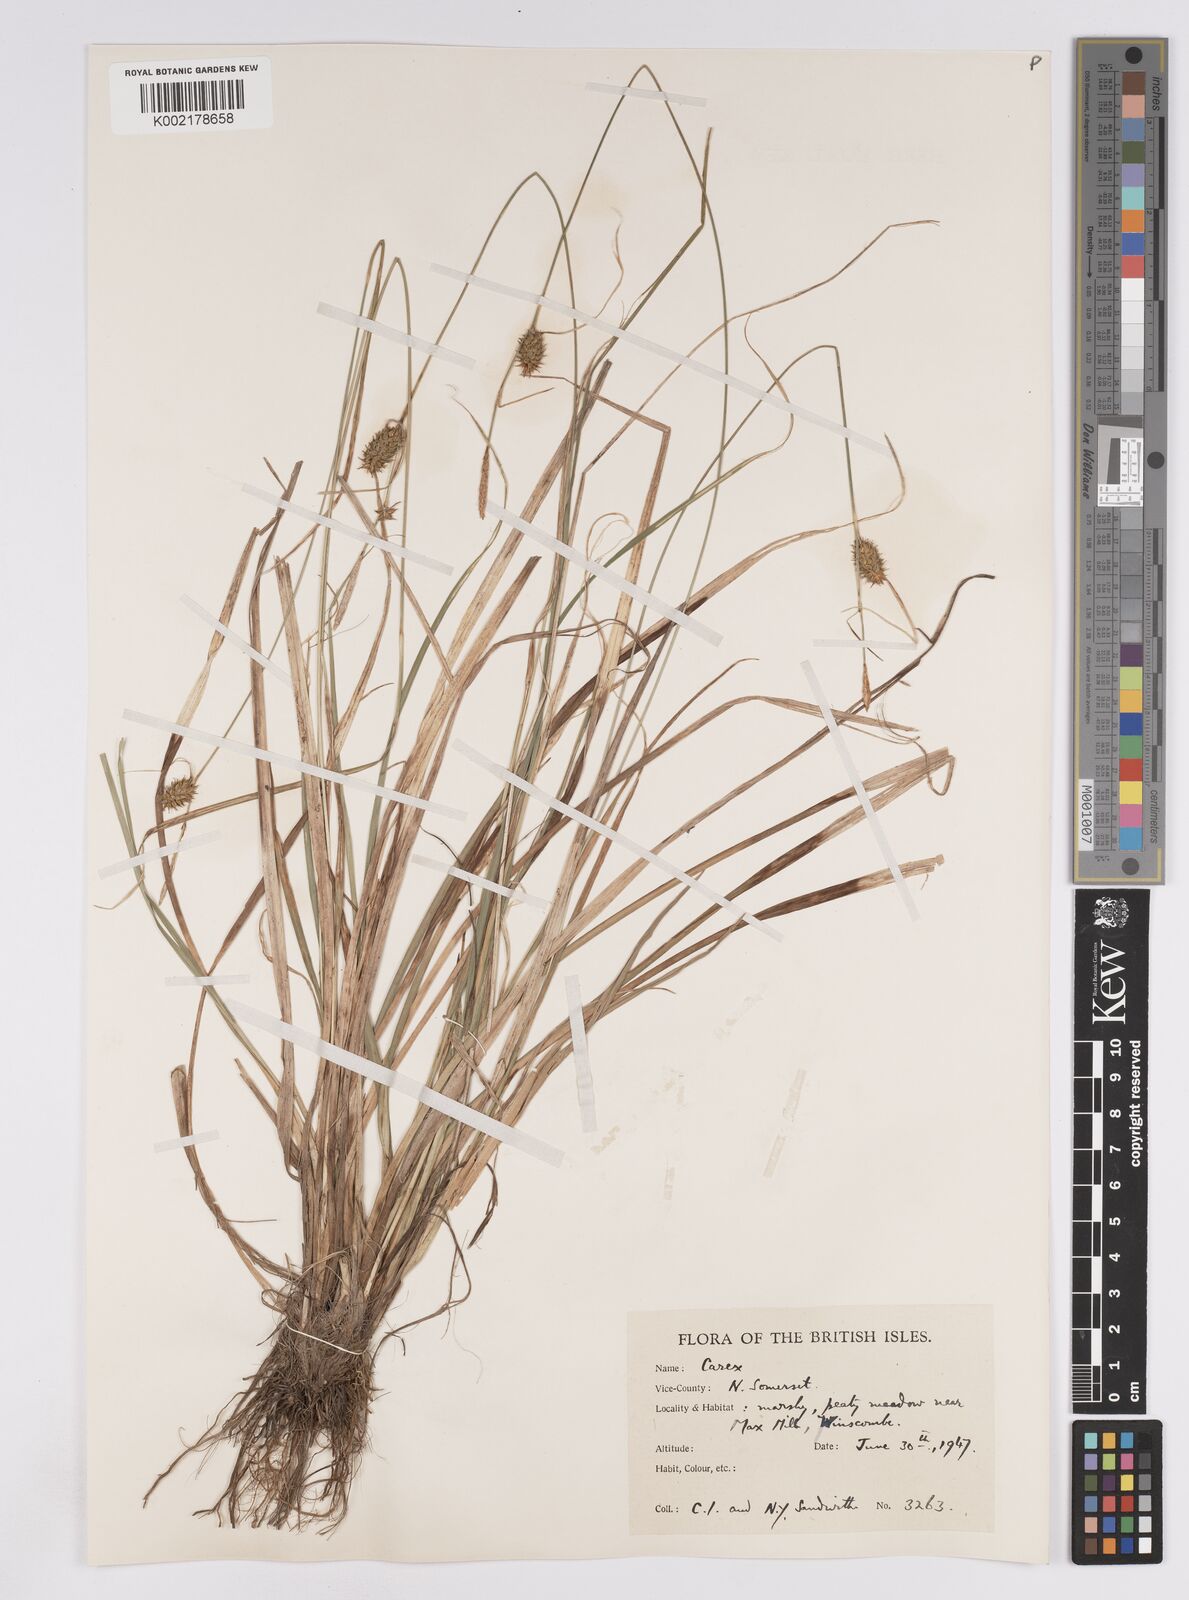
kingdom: Plantae
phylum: Tracheophyta
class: Liliopsida
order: Poales
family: Cyperaceae
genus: Carex
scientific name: Carex lepidocarpa
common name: Long-stalked yellow-sedge
